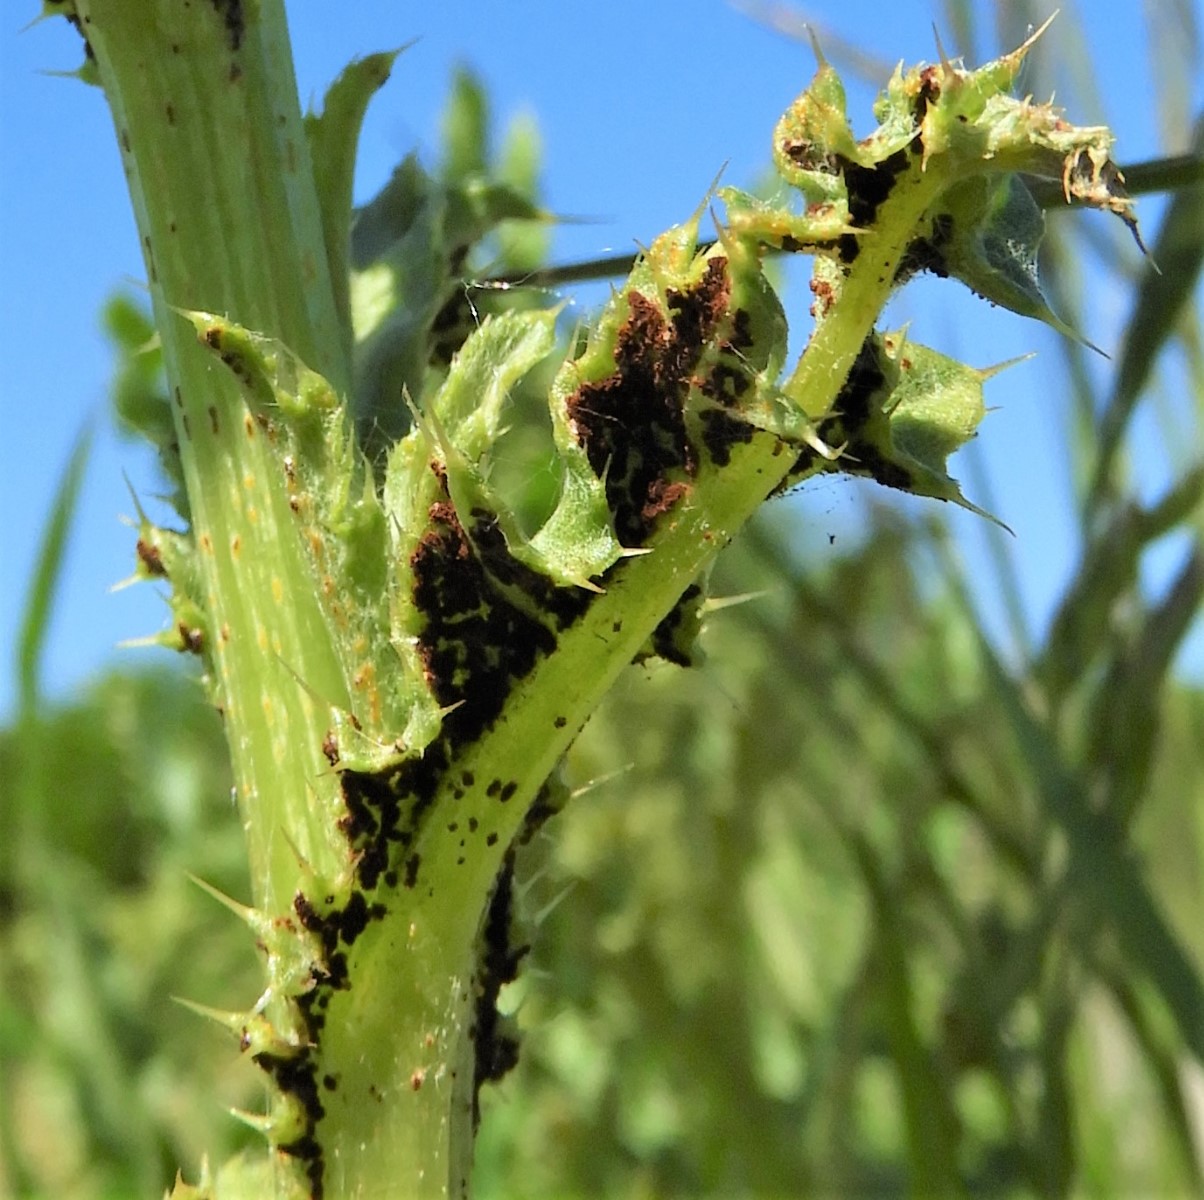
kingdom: Fungi
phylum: Basidiomycota
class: Pucciniomycetes
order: Pucciniales
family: Pucciniaceae
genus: Puccinia
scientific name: Puccinia suaveolens
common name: tidsel-tvecellerust
